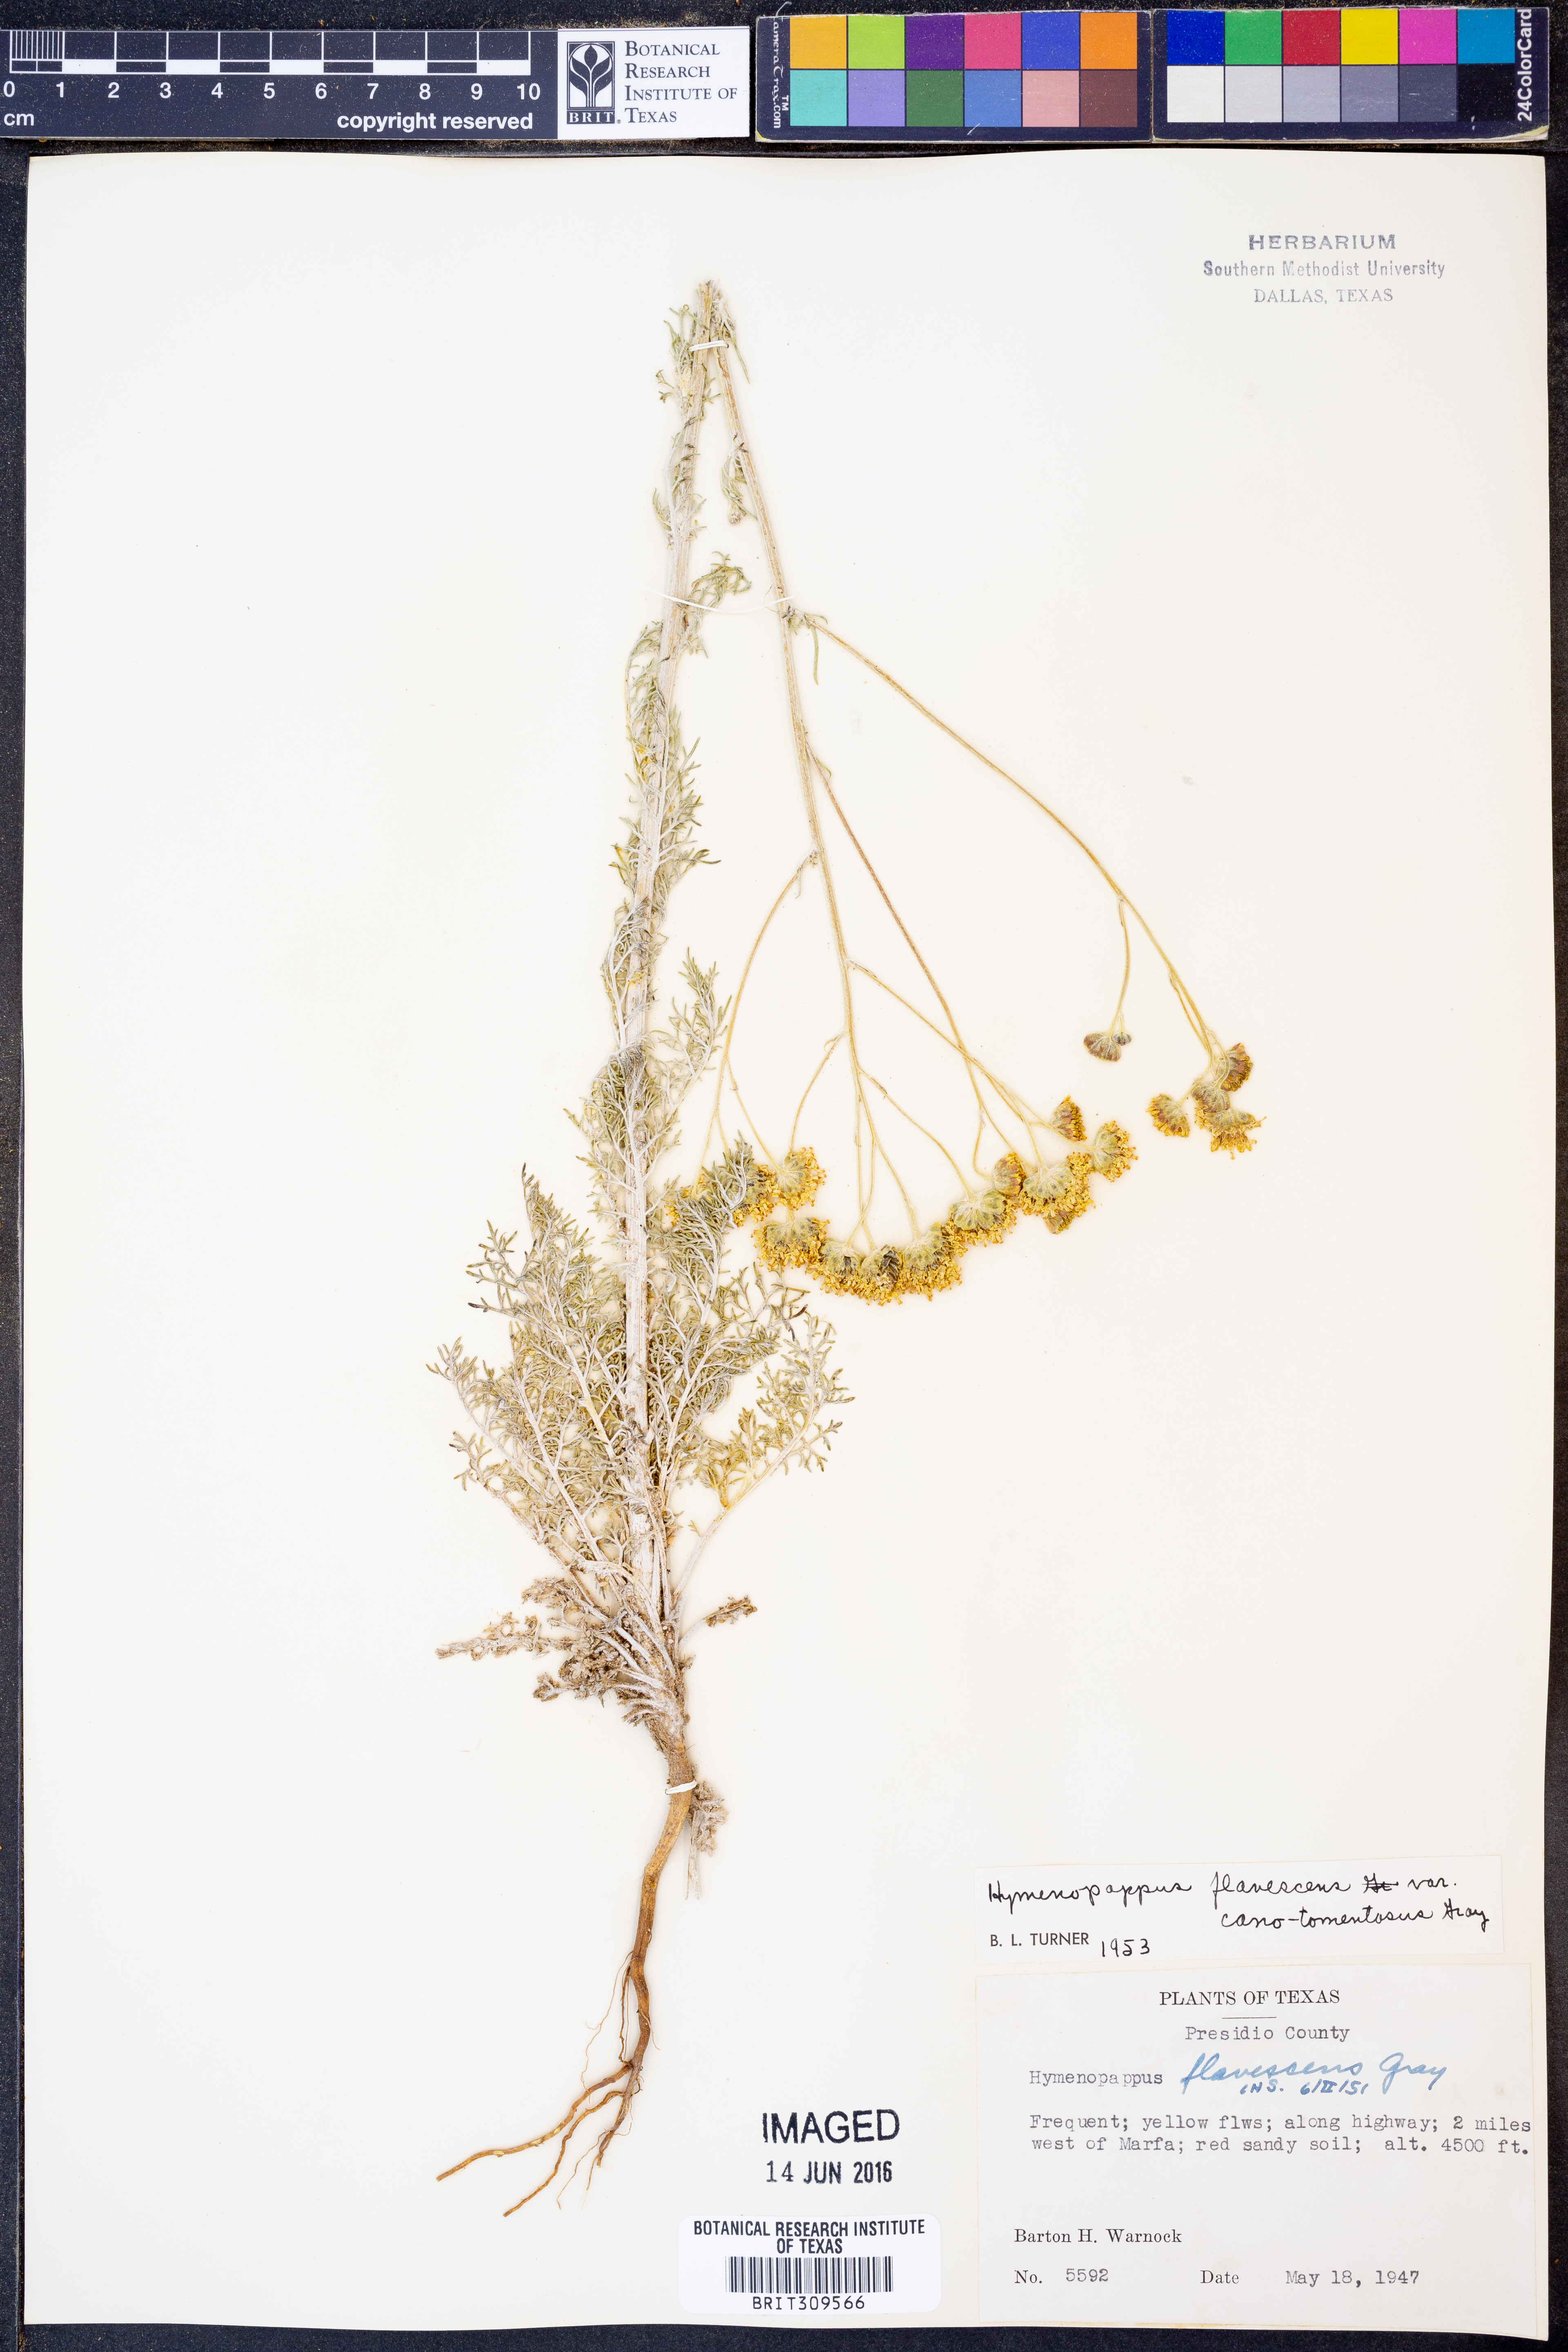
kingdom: Plantae
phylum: Tracheophyta
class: Magnoliopsida
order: Asterales
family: Asteraceae
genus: Hymenopappus
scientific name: Hymenopappus flavescens
